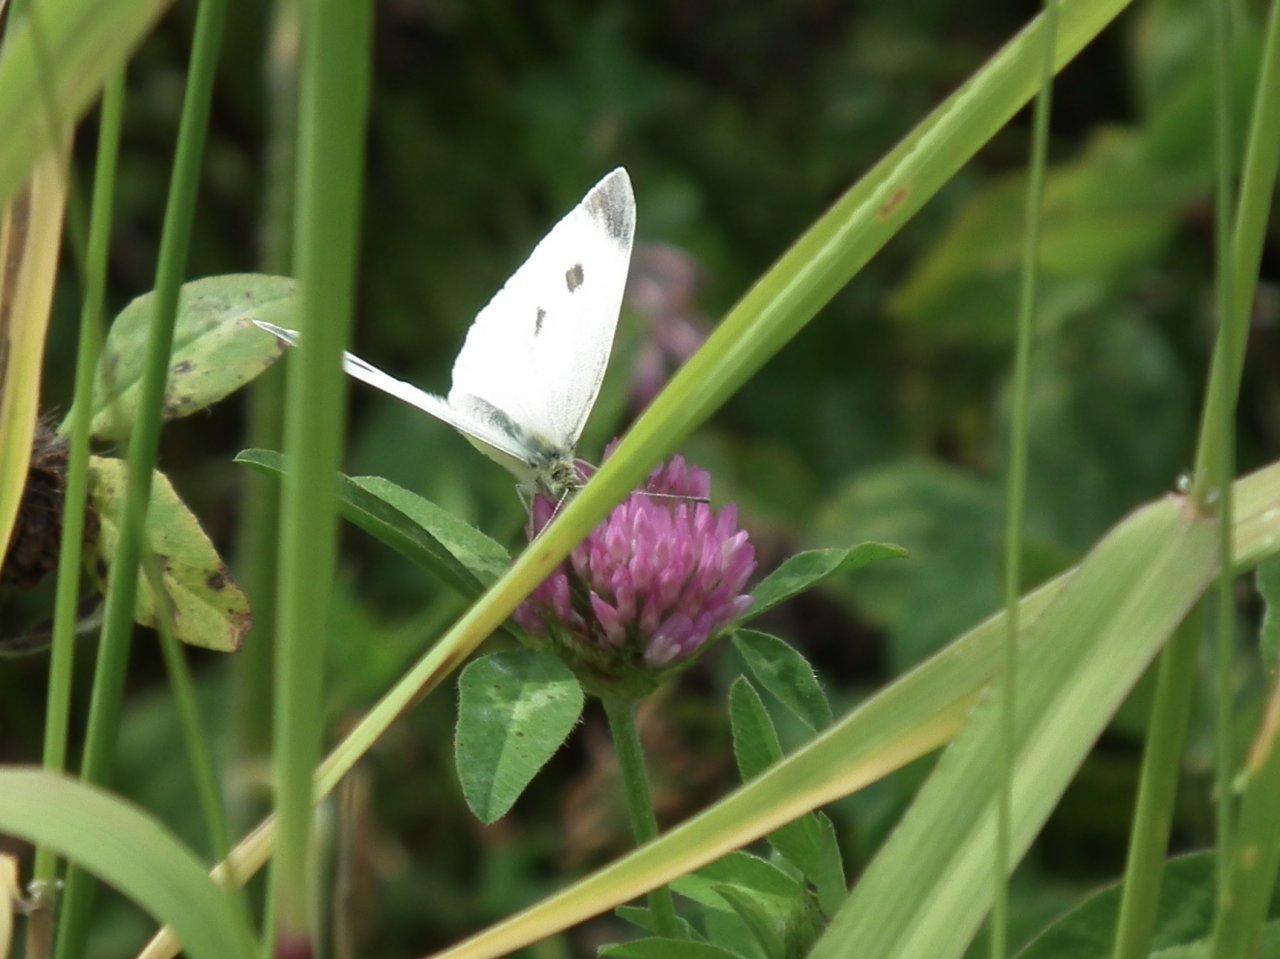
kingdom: Animalia
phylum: Arthropoda
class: Insecta
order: Lepidoptera
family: Pieridae
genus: Pieris
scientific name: Pieris rapae
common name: Cabbage White
